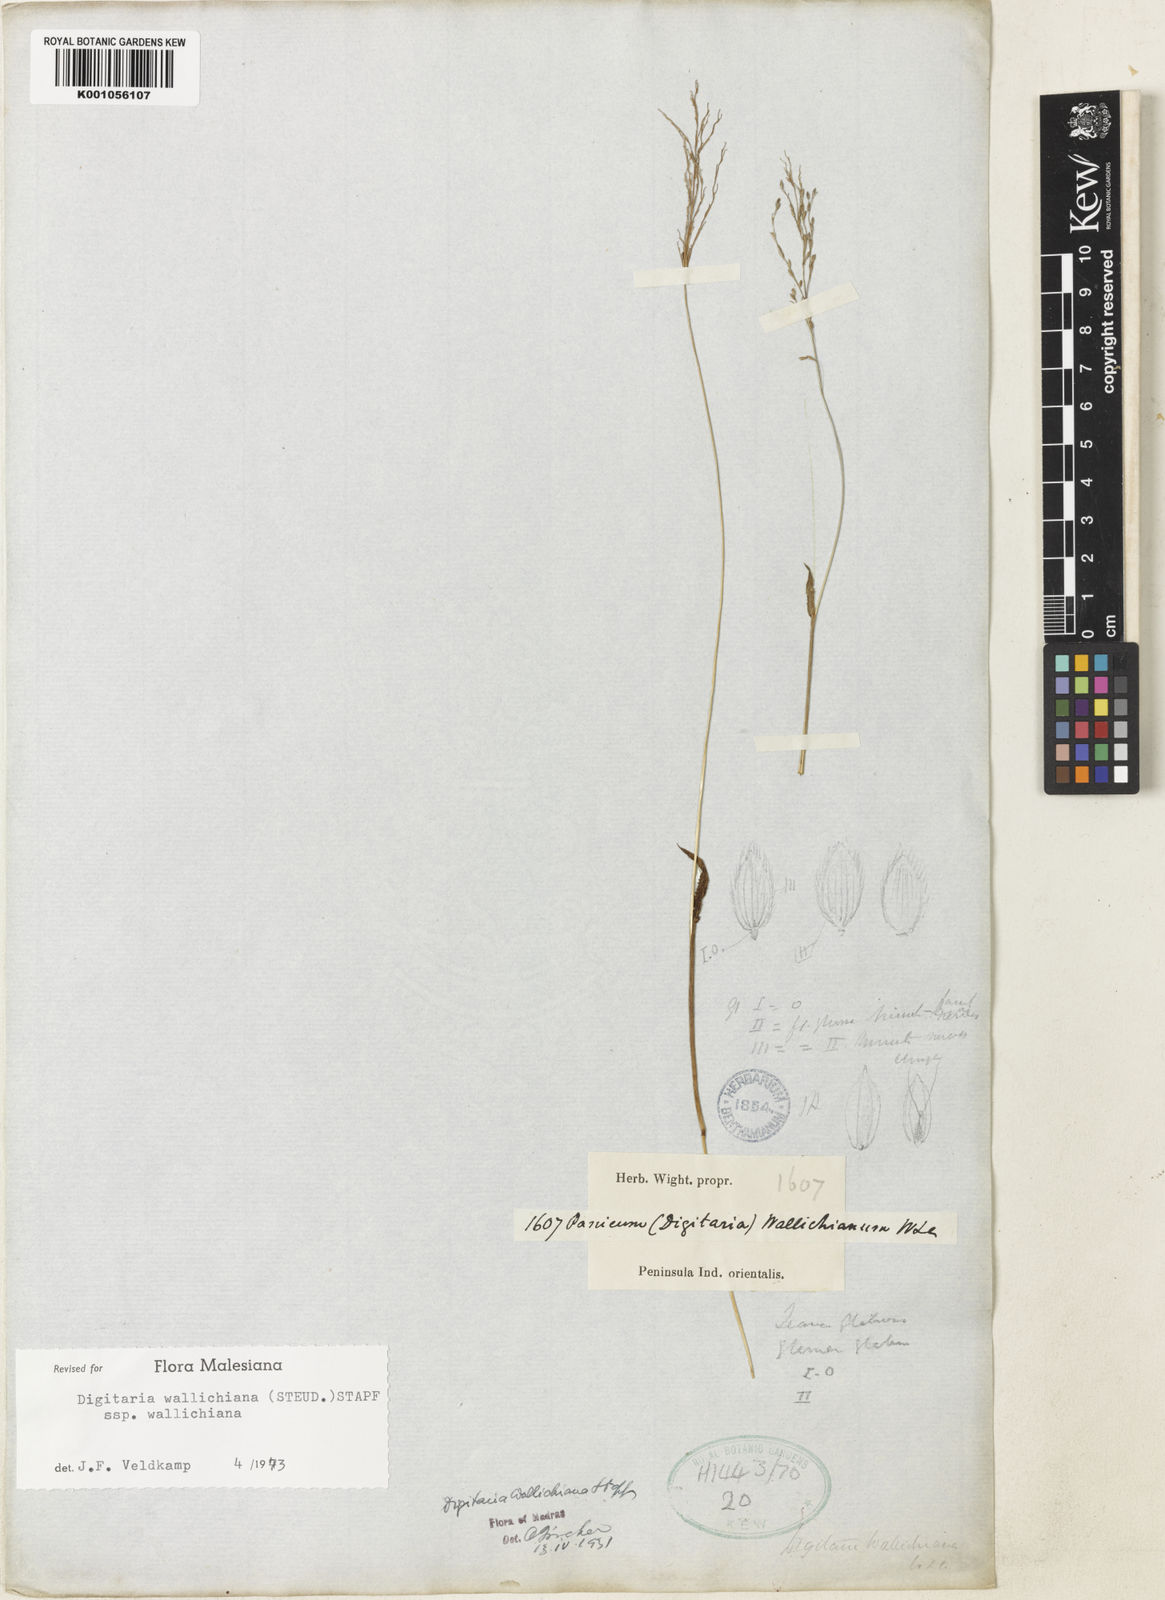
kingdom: Plantae
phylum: Tracheophyta
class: Liliopsida
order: Poales
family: Poaceae
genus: Digitaria
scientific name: Digitaria wallichiana
